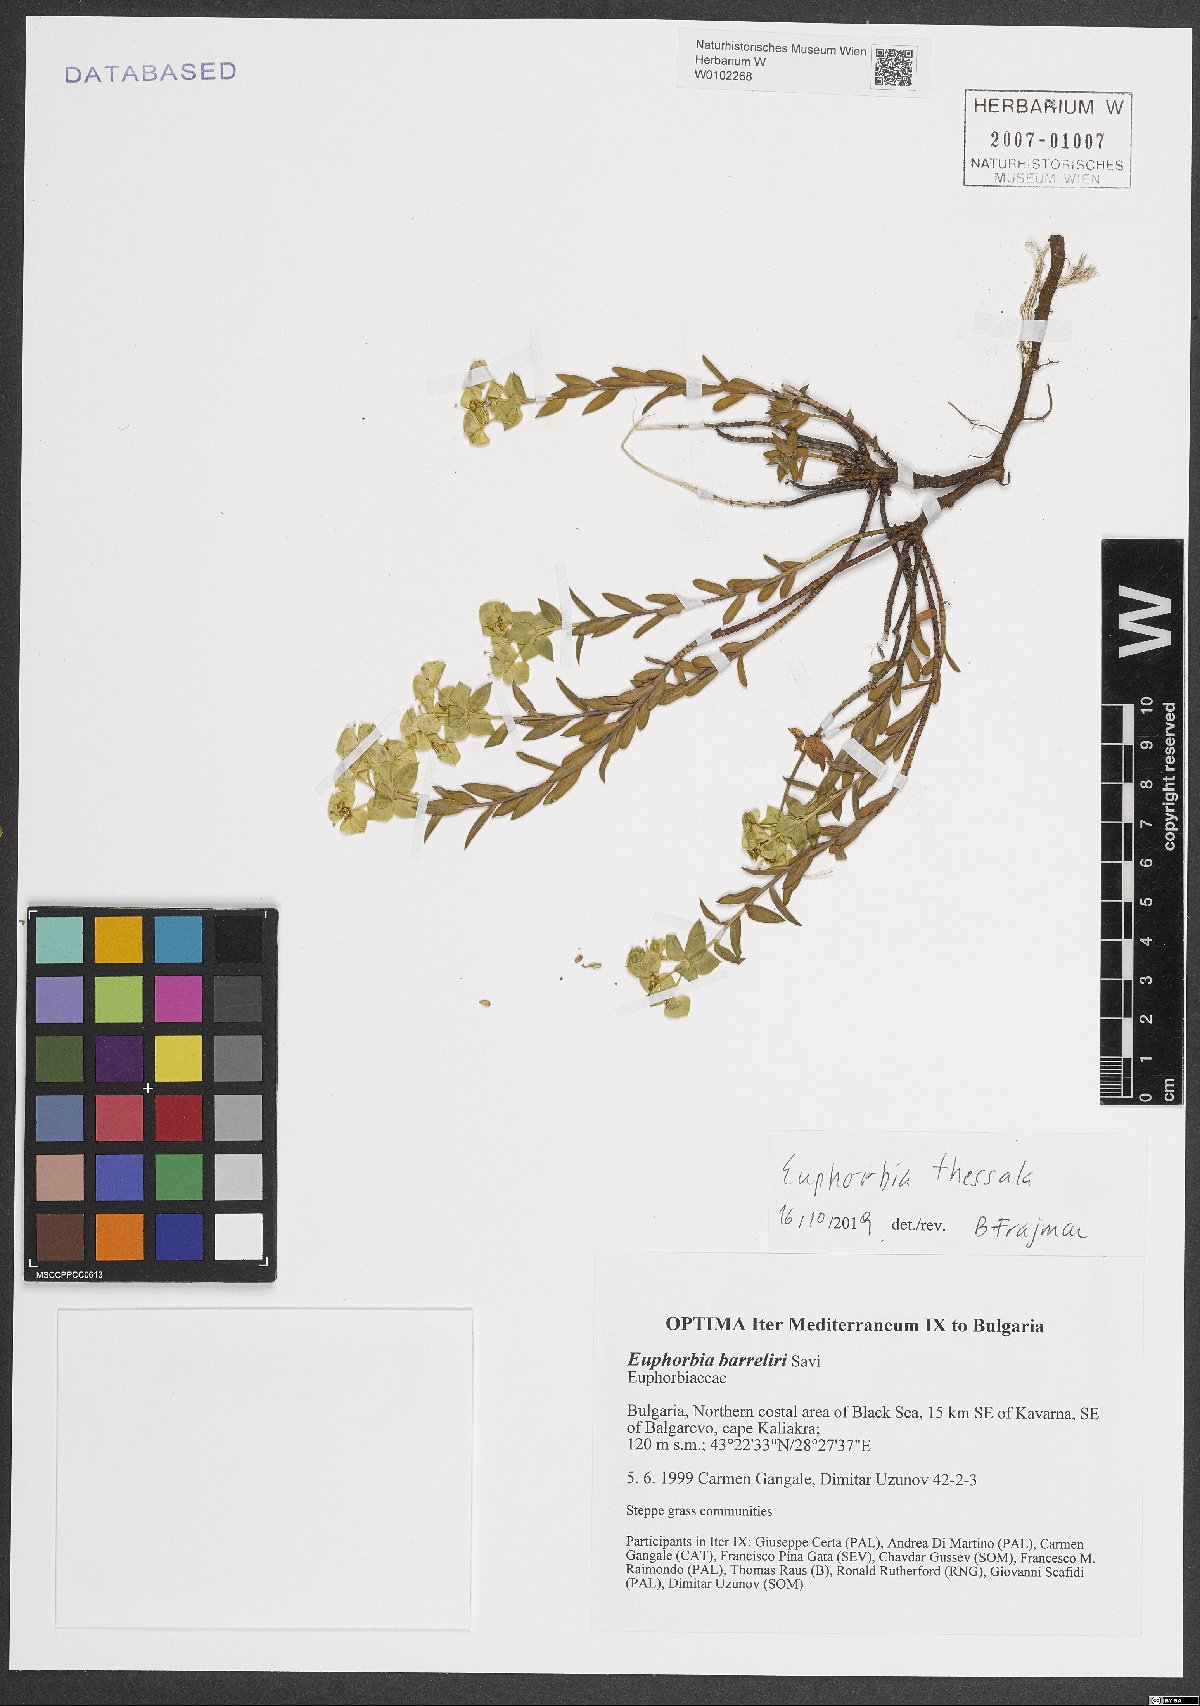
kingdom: Plantae
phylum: Tracheophyta
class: Magnoliopsida
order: Malpighiales
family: Euphorbiaceae
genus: Euphorbia
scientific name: Euphorbia barrelieri
